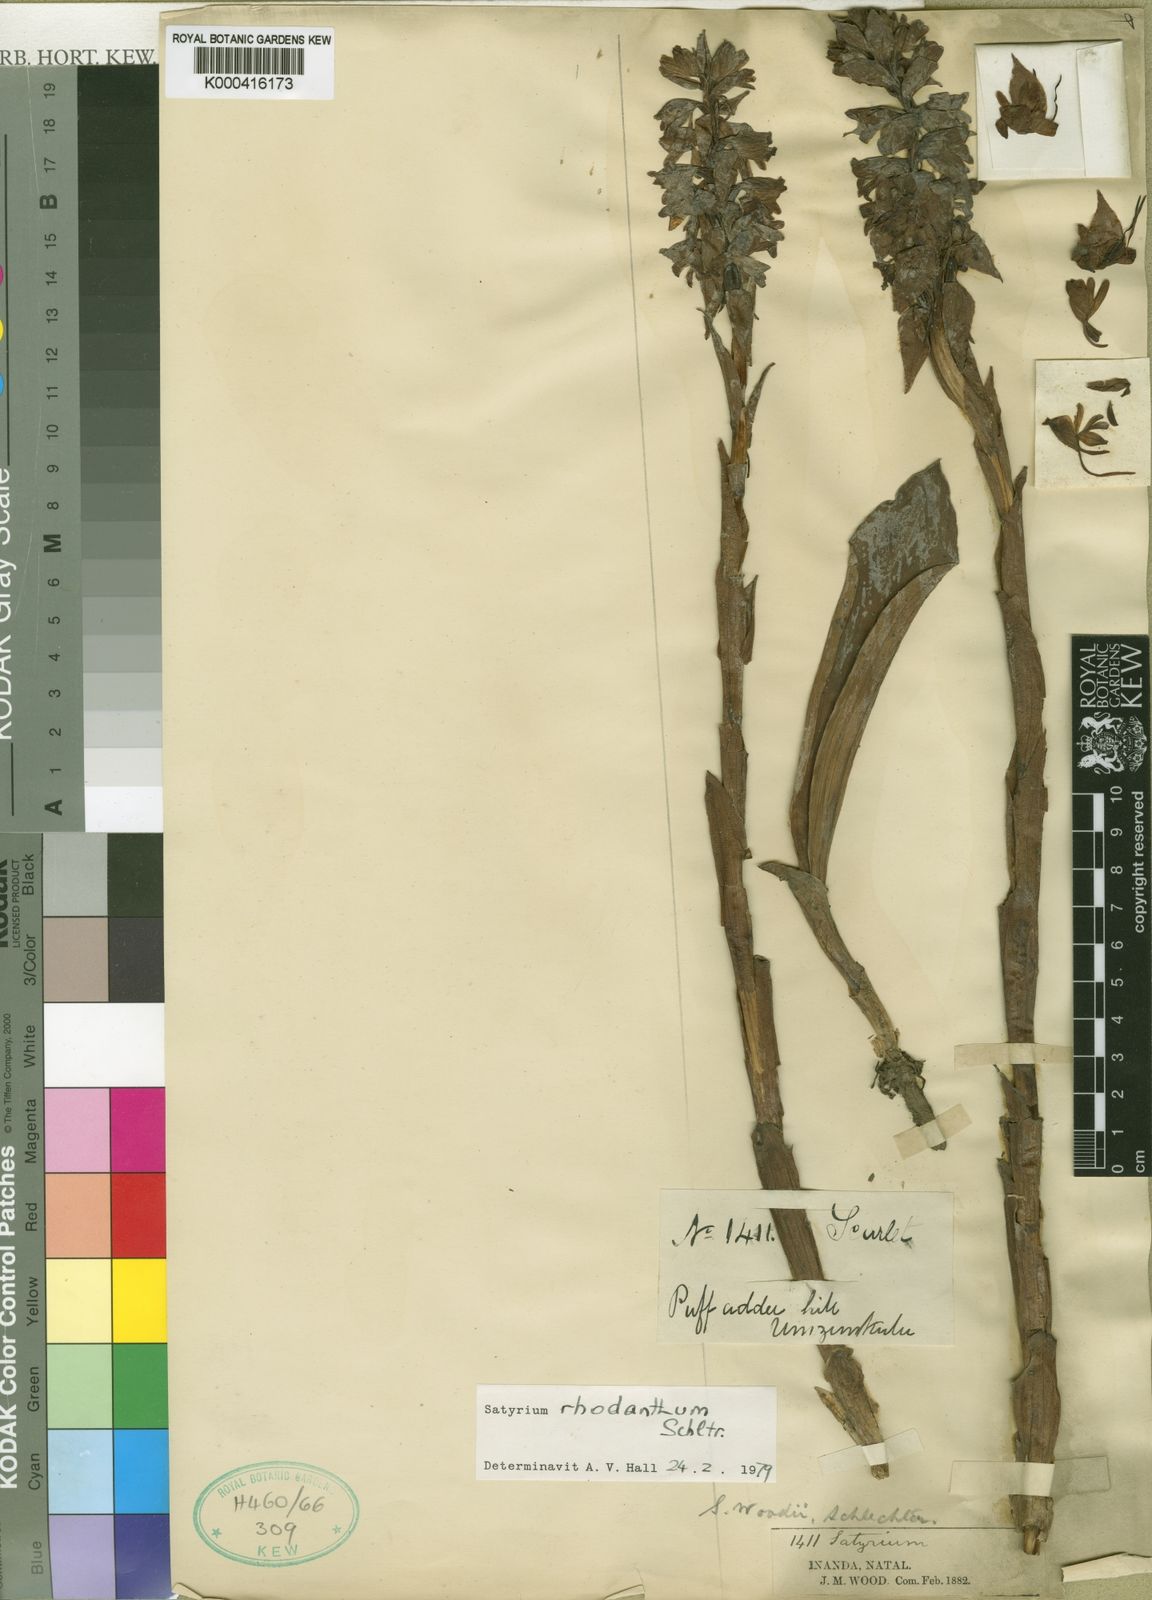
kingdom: Plantae
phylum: Tracheophyta
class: Liliopsida
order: Asparagales
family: Orchidaceae
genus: Satyrium
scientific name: Satyrium neglectum
